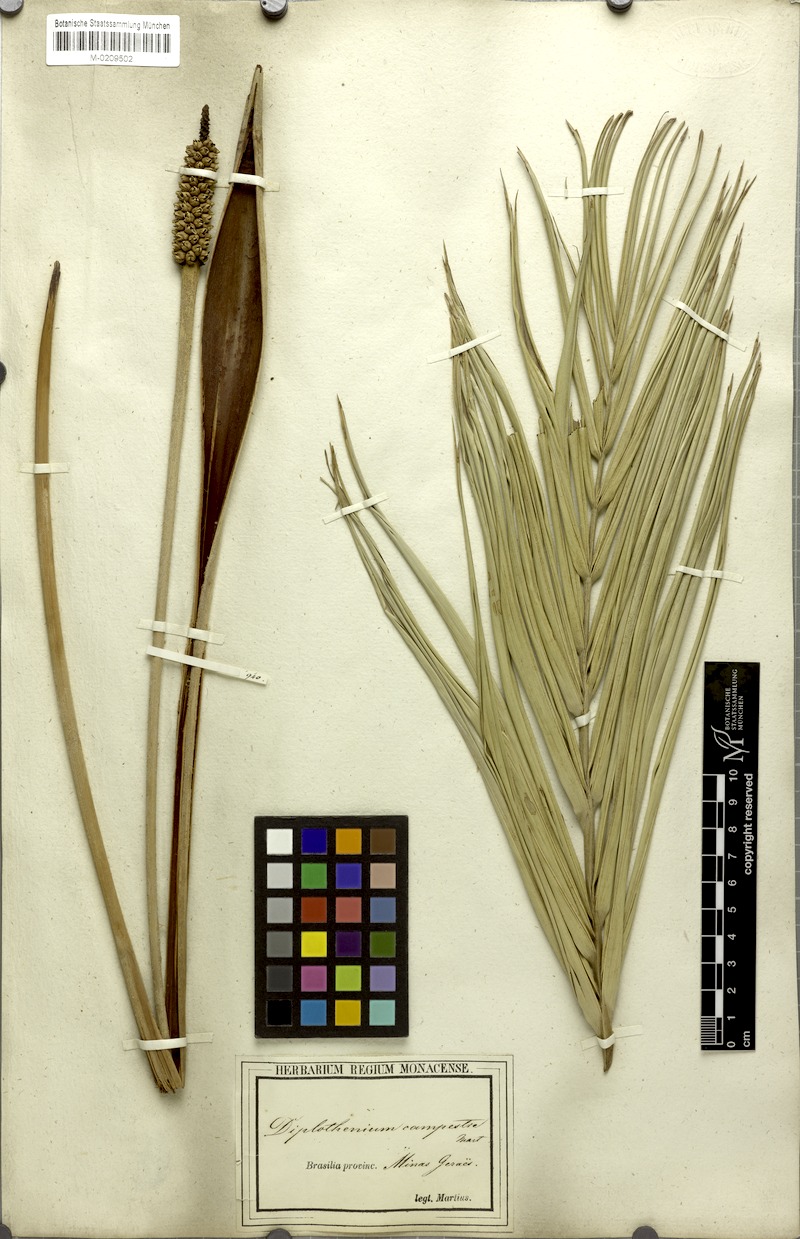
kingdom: Plantae
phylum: Tracheophyta
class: Liliopsida
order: Arecales
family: Arecaceae
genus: Allagoptera
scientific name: Allagoptera campestris
